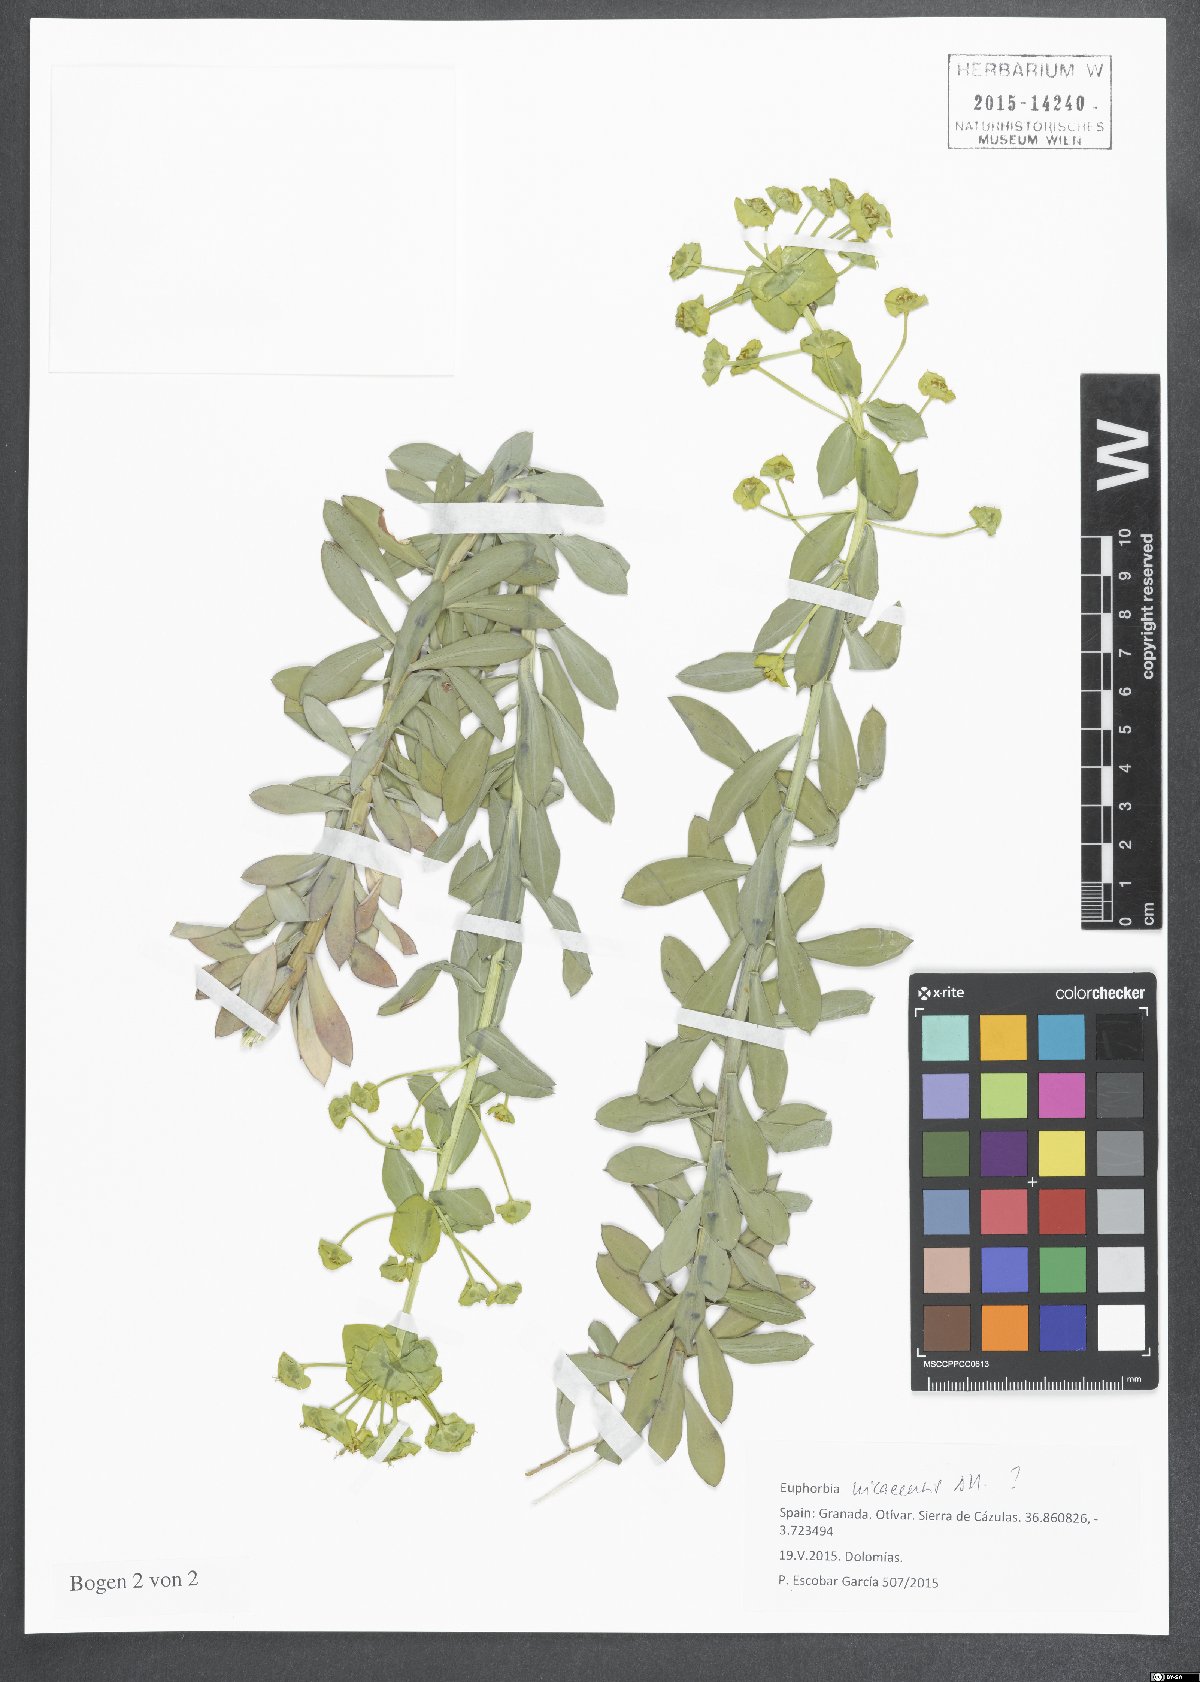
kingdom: Plantae
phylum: Tracheophyta
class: Magnoliopsida
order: Malpighiales
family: Euphorbiaceae
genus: Euphorbia
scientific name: Euphorbia nicaeensis
